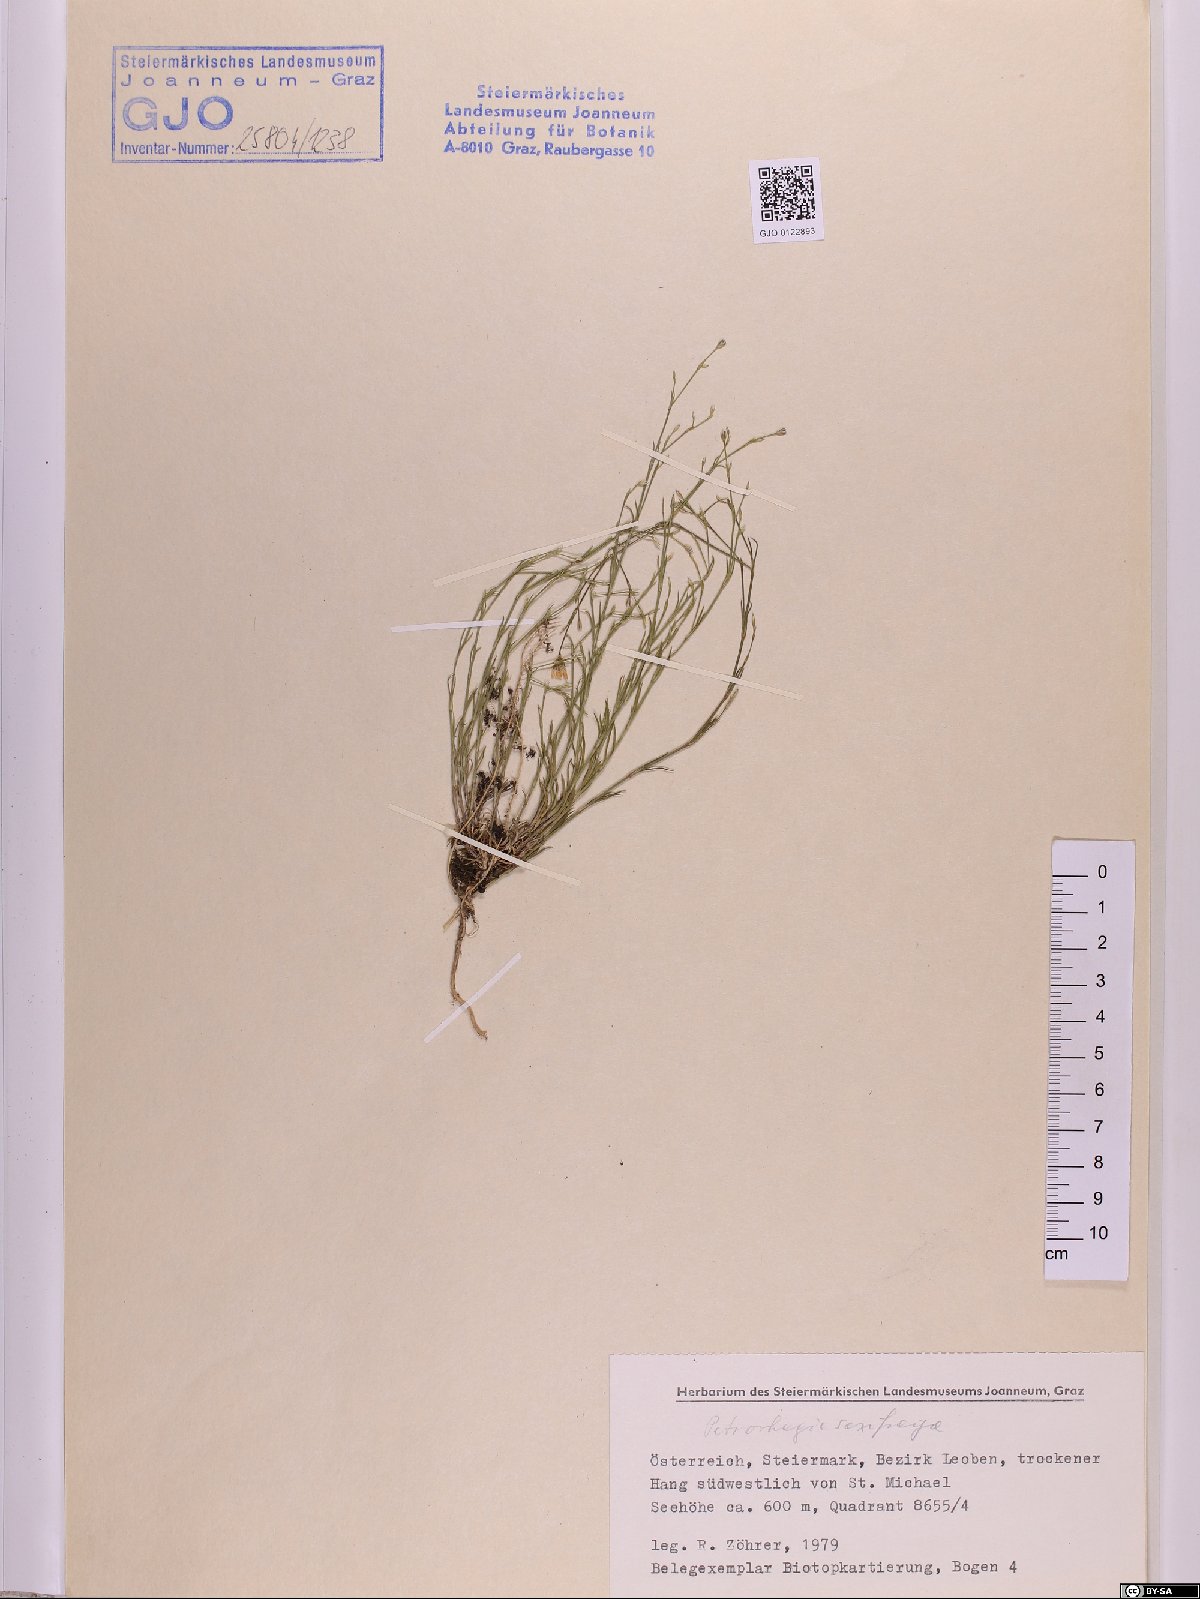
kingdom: Plantae
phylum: Tracheophyta
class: Magnoliopsida
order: Caryophyllales
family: Caryophyllaceae
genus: Petrorhagia
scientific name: Petrorhagia saxifraga
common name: Tunicflower
